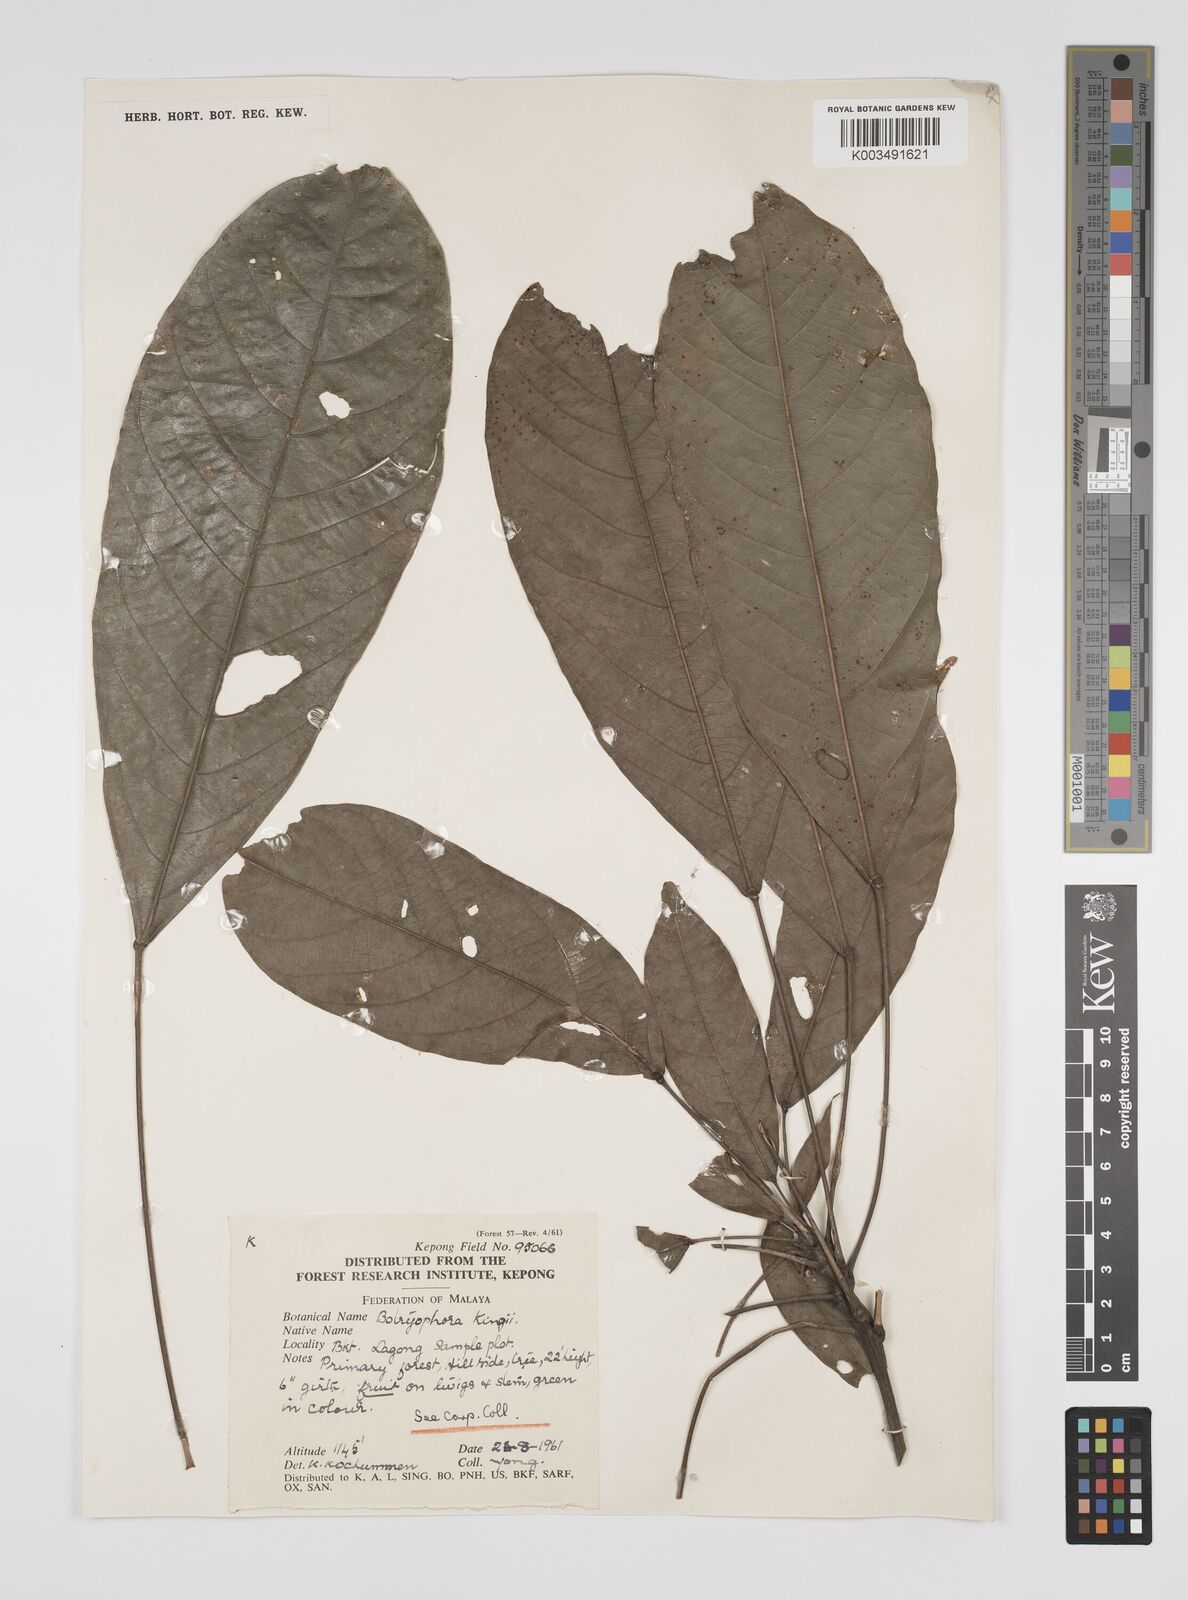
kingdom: Plantae
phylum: Tracheophyta
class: Magnoliopsida
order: Malpighiales
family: Euphorbiaceae
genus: Botryophora
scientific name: Botryophora geniculata
